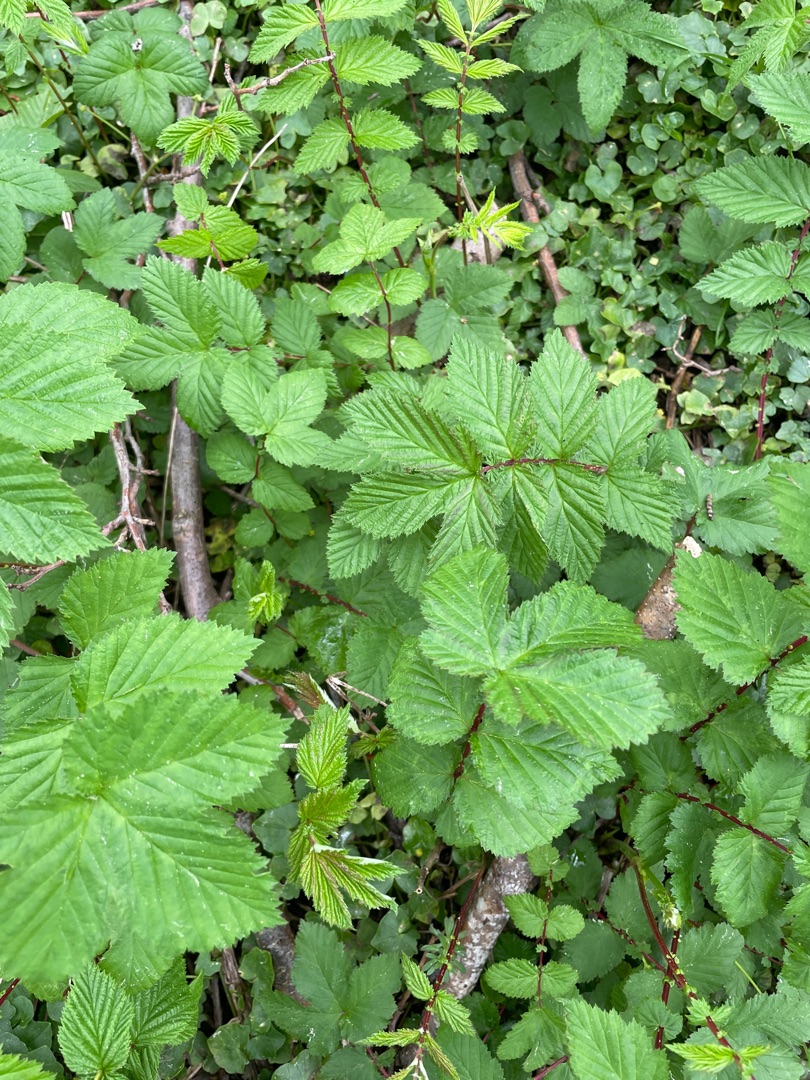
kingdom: Plantae
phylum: Tracheophyta
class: Magnoliopsida
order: Rosales
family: Rosaceae
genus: Filipendula
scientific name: Filipendula ulmaria
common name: Almindelig mjødurt
